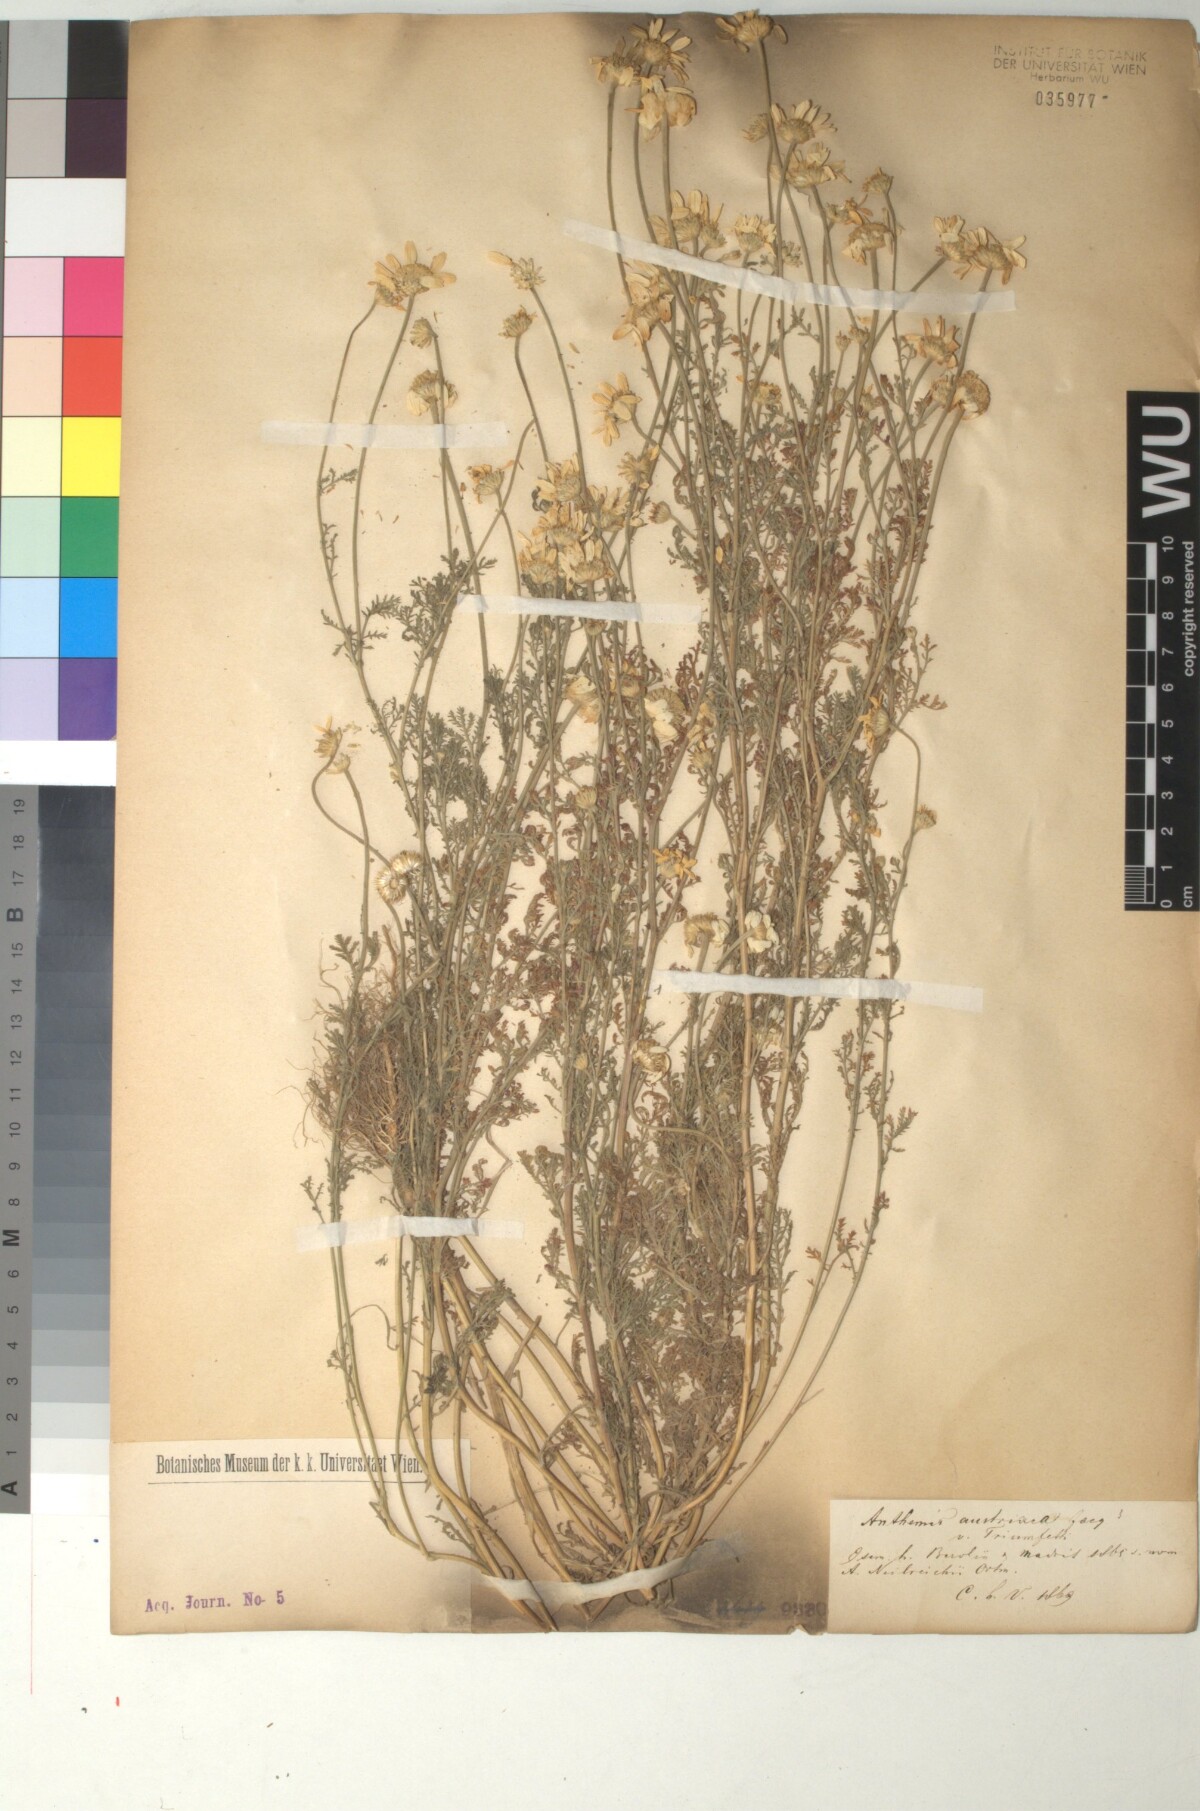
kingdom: Plantae
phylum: Tracheophyta
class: Magnoliopsida
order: Asterales
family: Asteraceae
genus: Cota
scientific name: Cota austriaca
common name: Austrian chamomile
